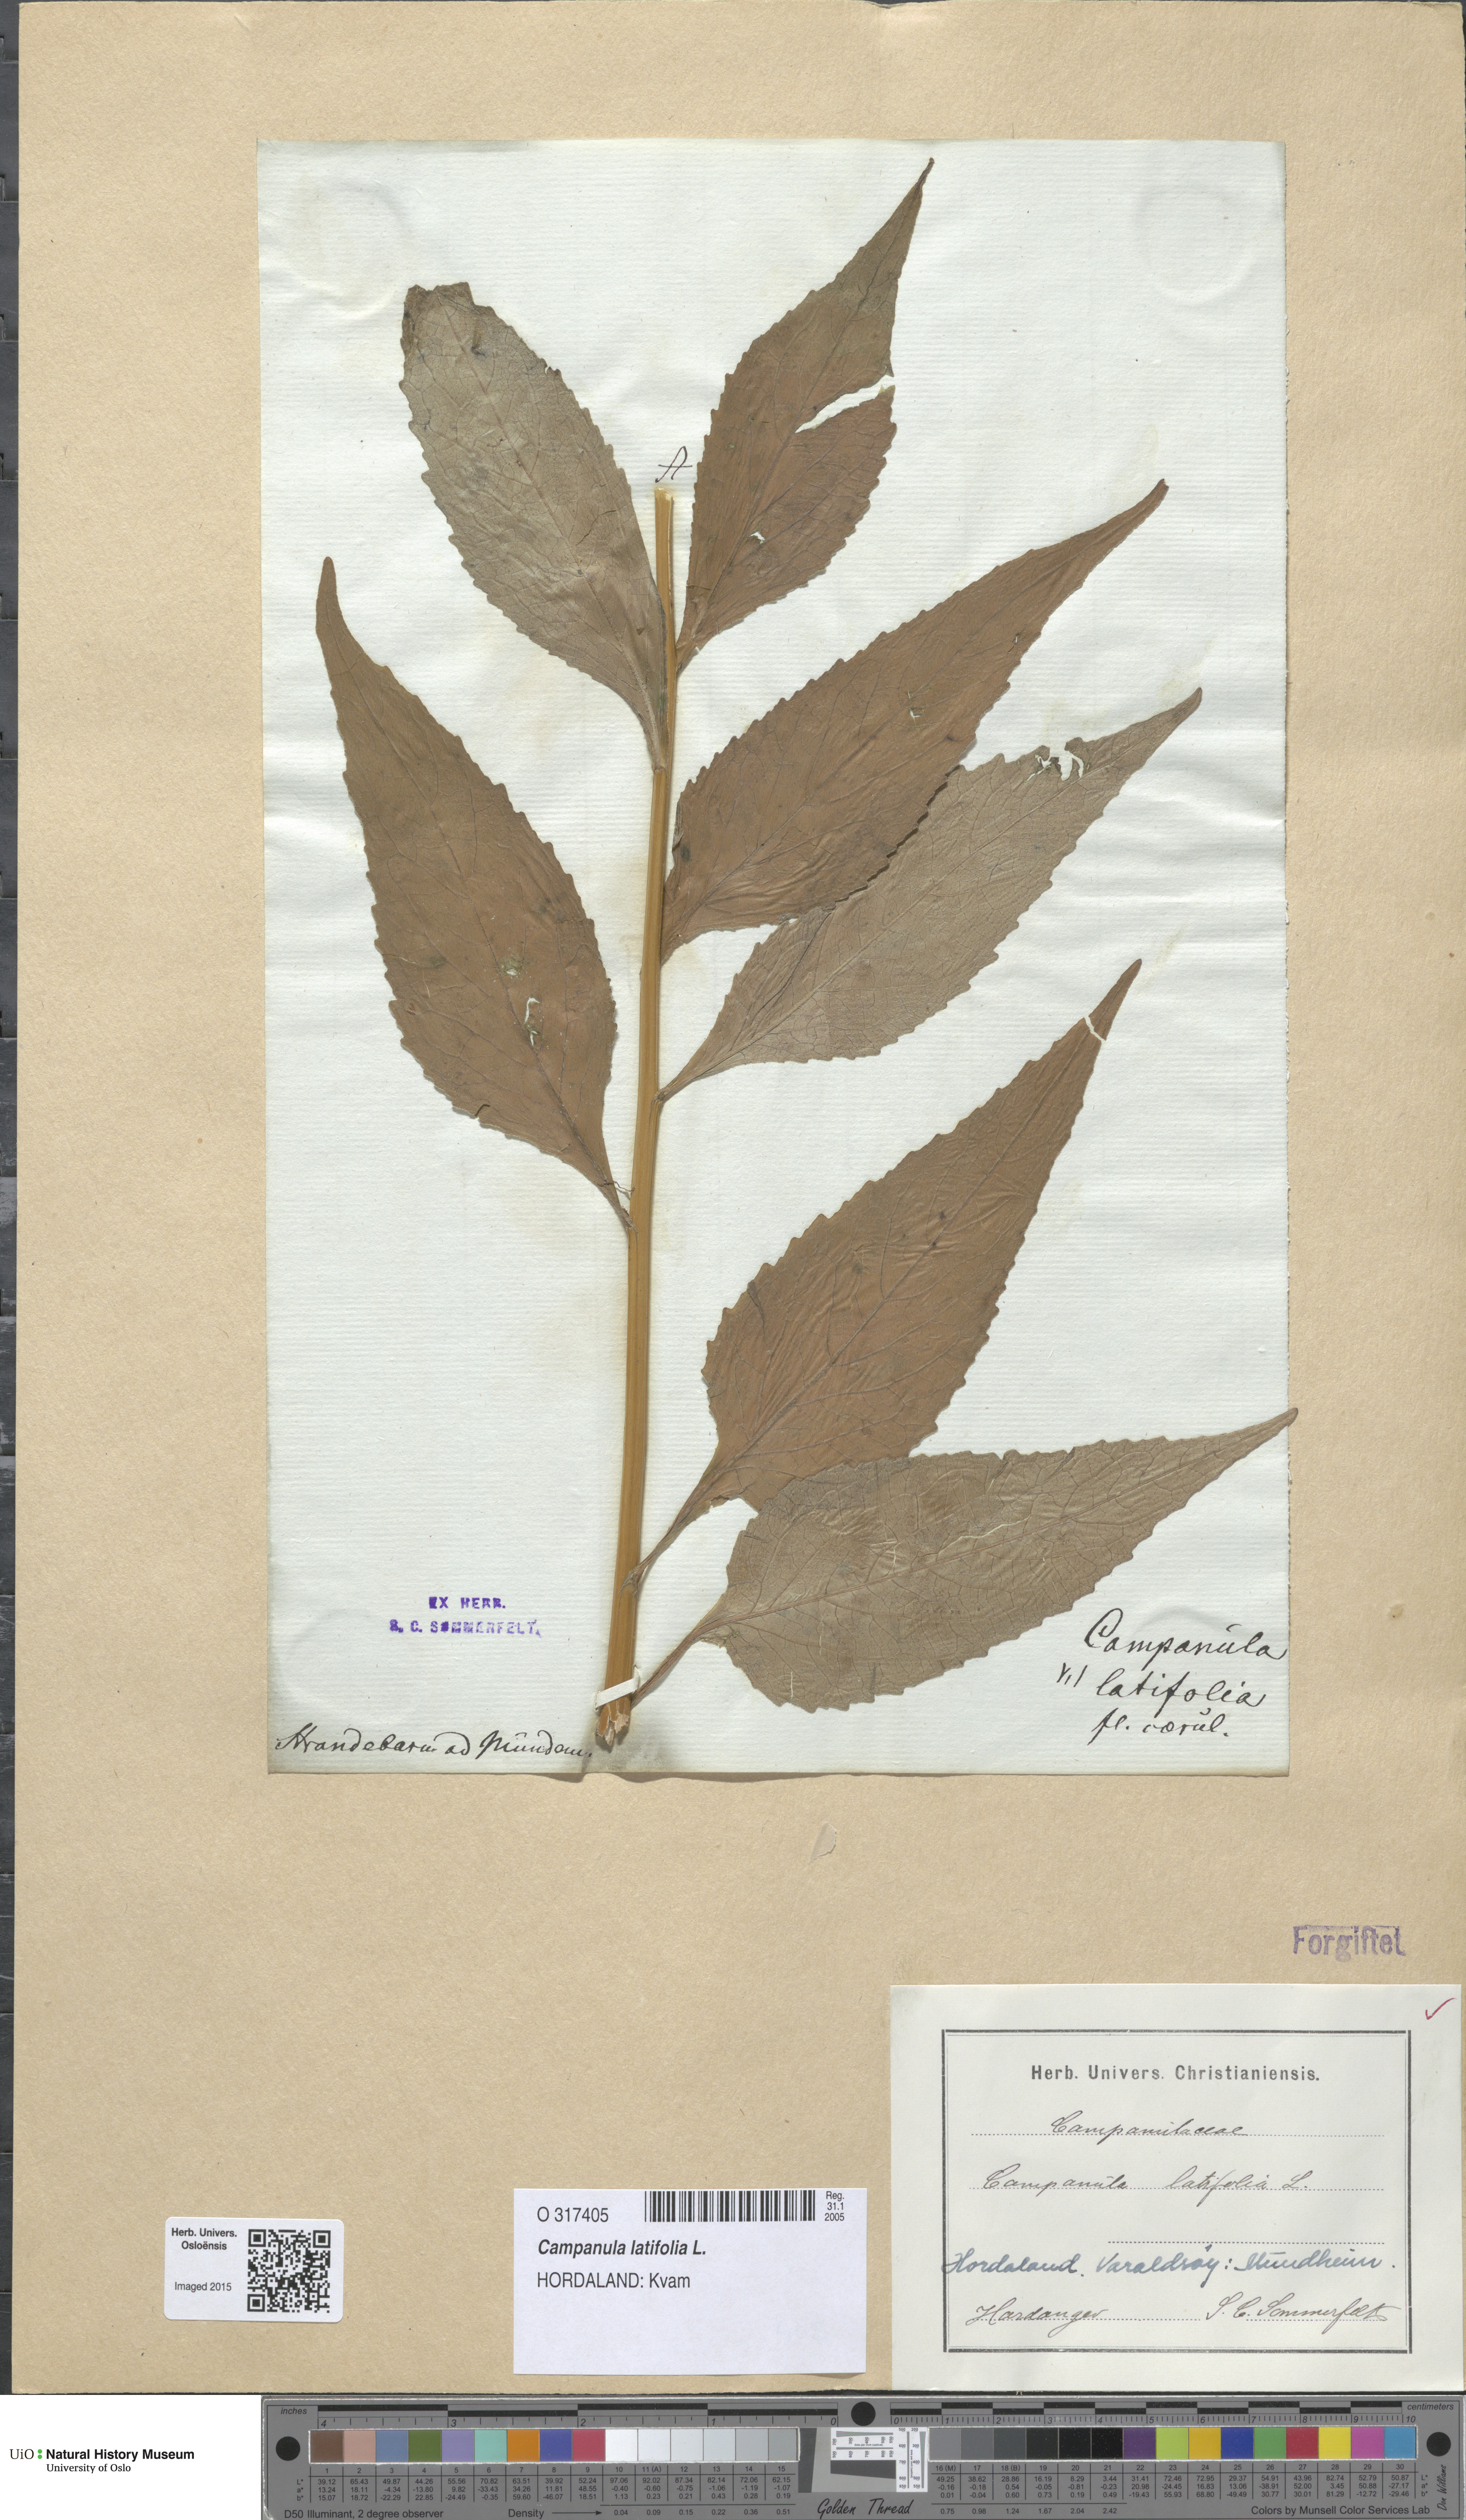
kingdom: Plantae
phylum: Tracheophyta
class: Magnoliopsida
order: Asterales
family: Campanulaceae
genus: Campanula
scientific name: Campanula latifolia
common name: Giant bellflower
